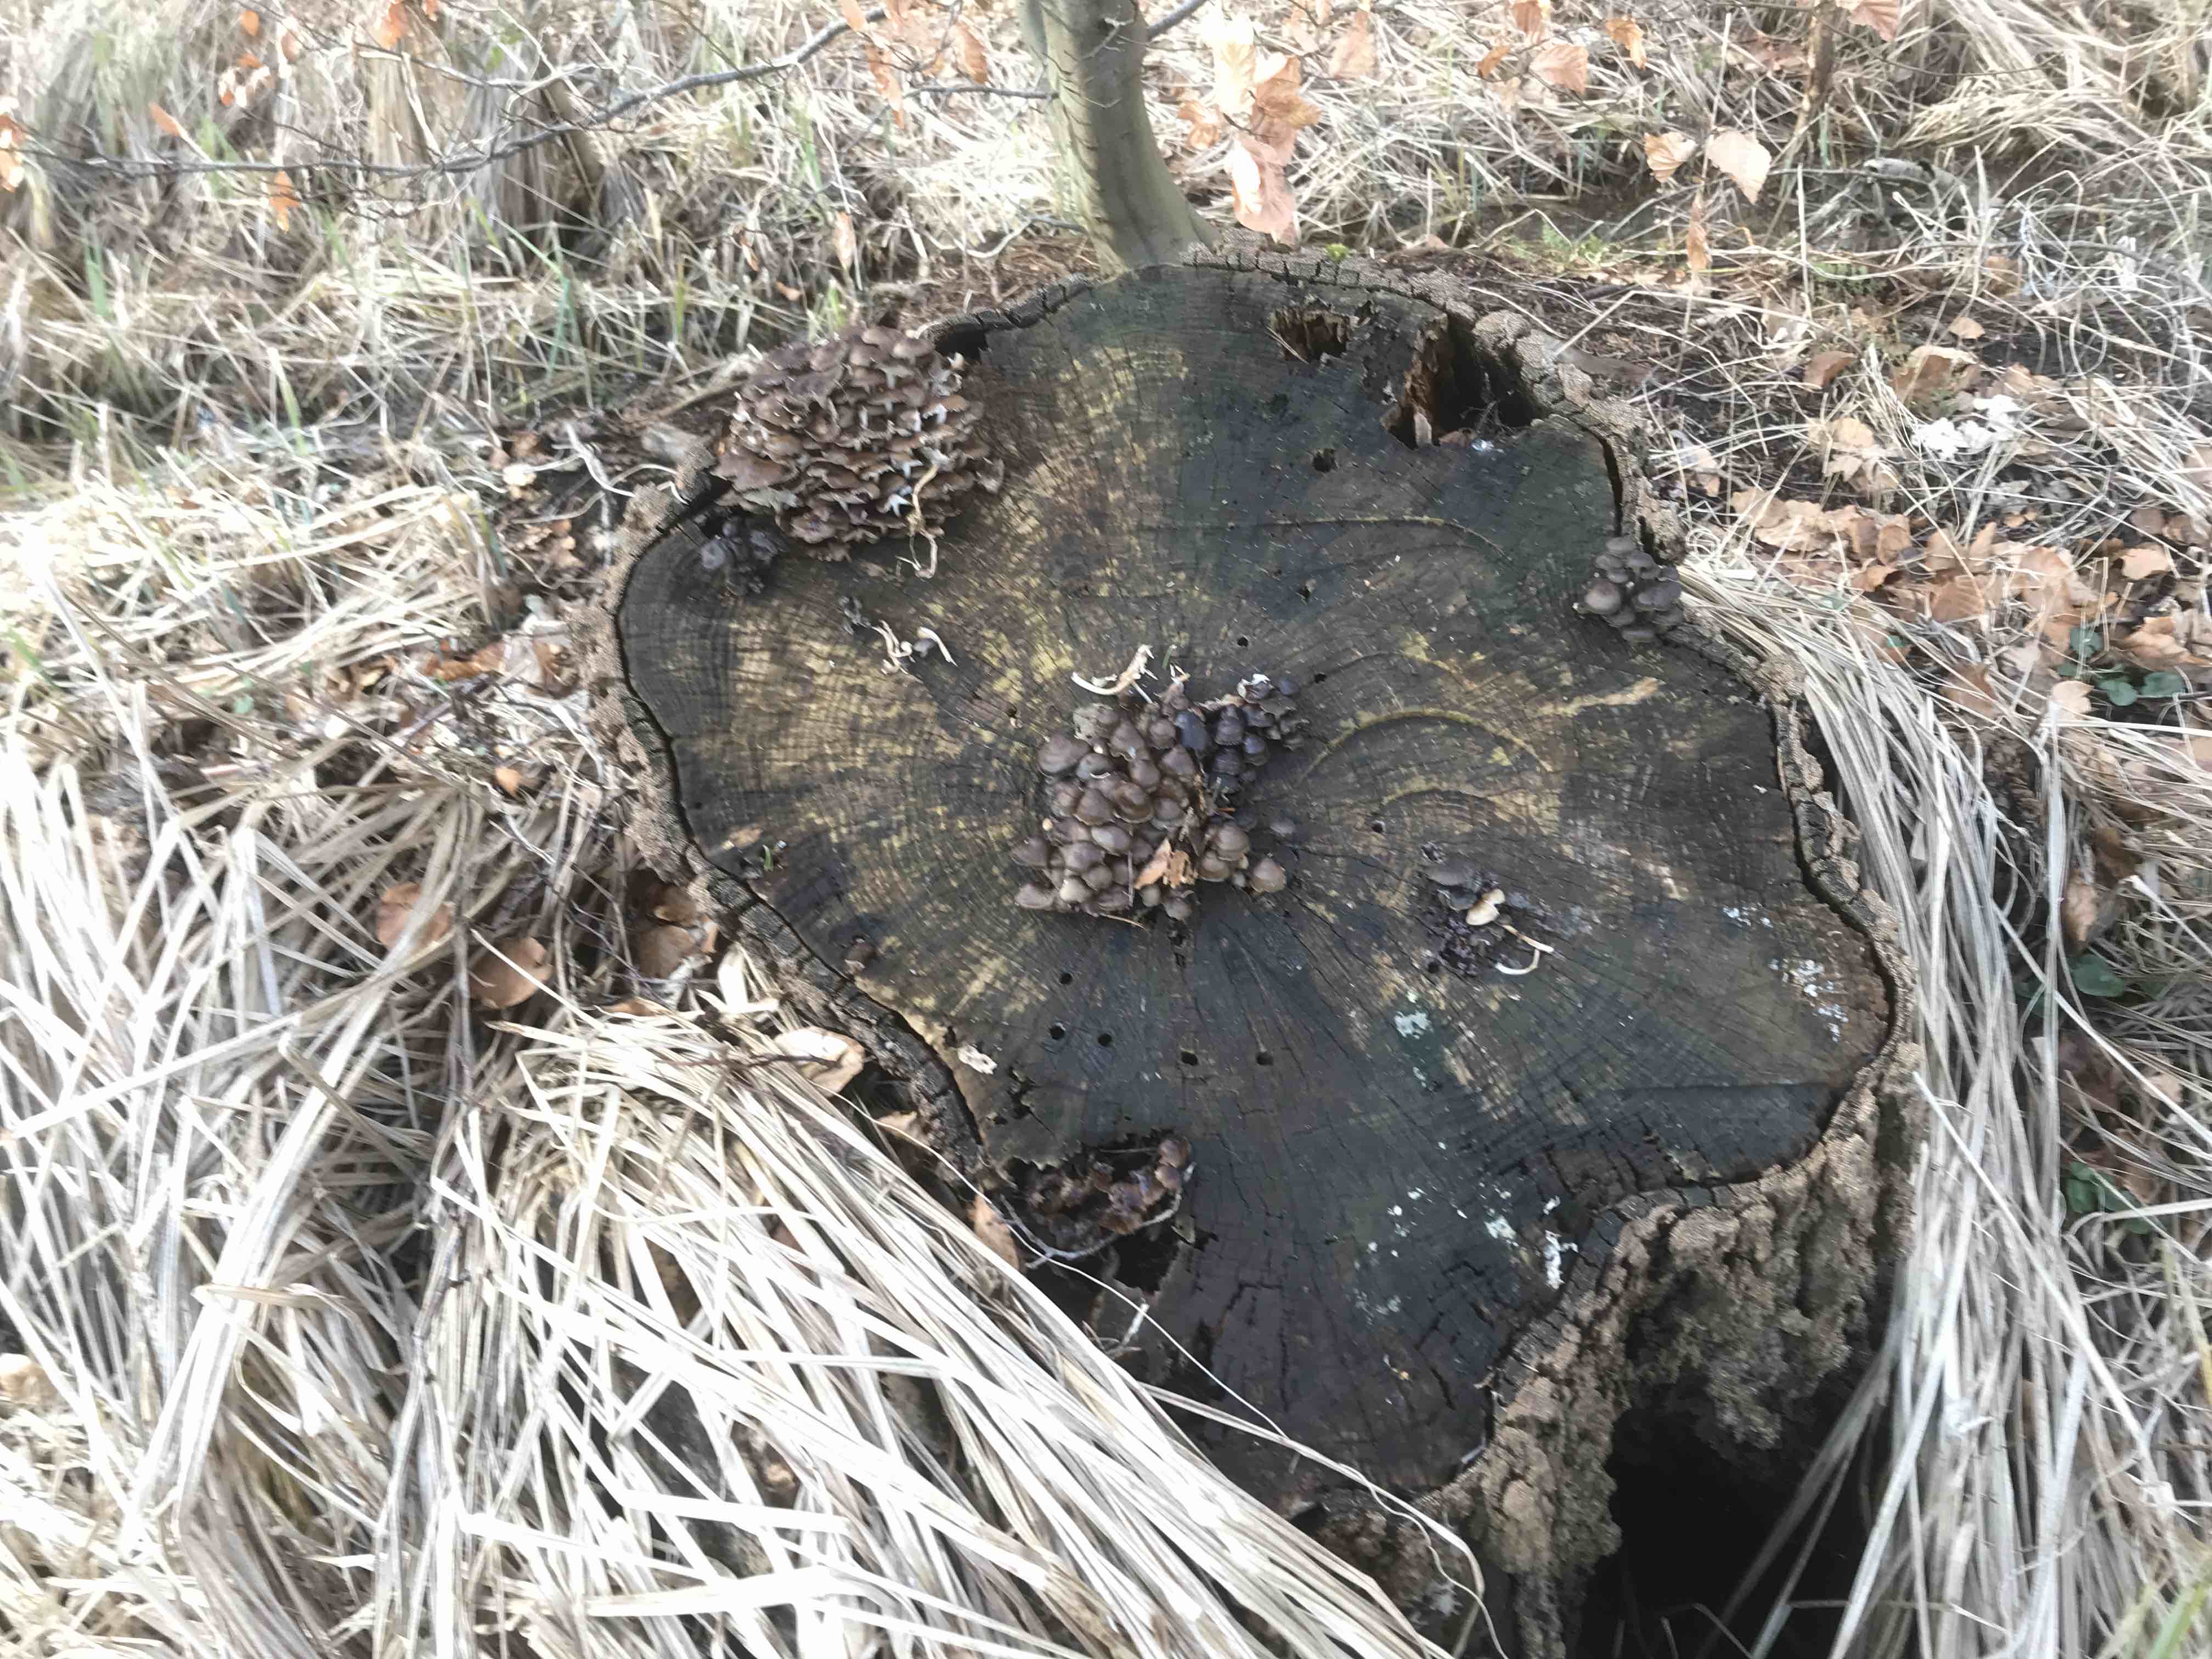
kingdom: Fungi
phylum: Basidiomycota
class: Agaricomycetes
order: Agaricales
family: Mycenaceae
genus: Mycena
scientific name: Mycena tintinnabulum
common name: vinter-huesvamp
